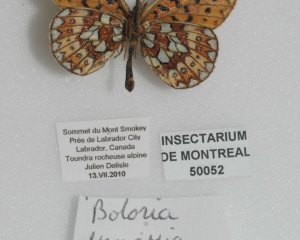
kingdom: Animalia
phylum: Arthropoda
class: Insecta
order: Lepidoptera
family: Nymphalidae
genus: Boloria
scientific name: Boloria eunomia
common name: Bog Fritillary
